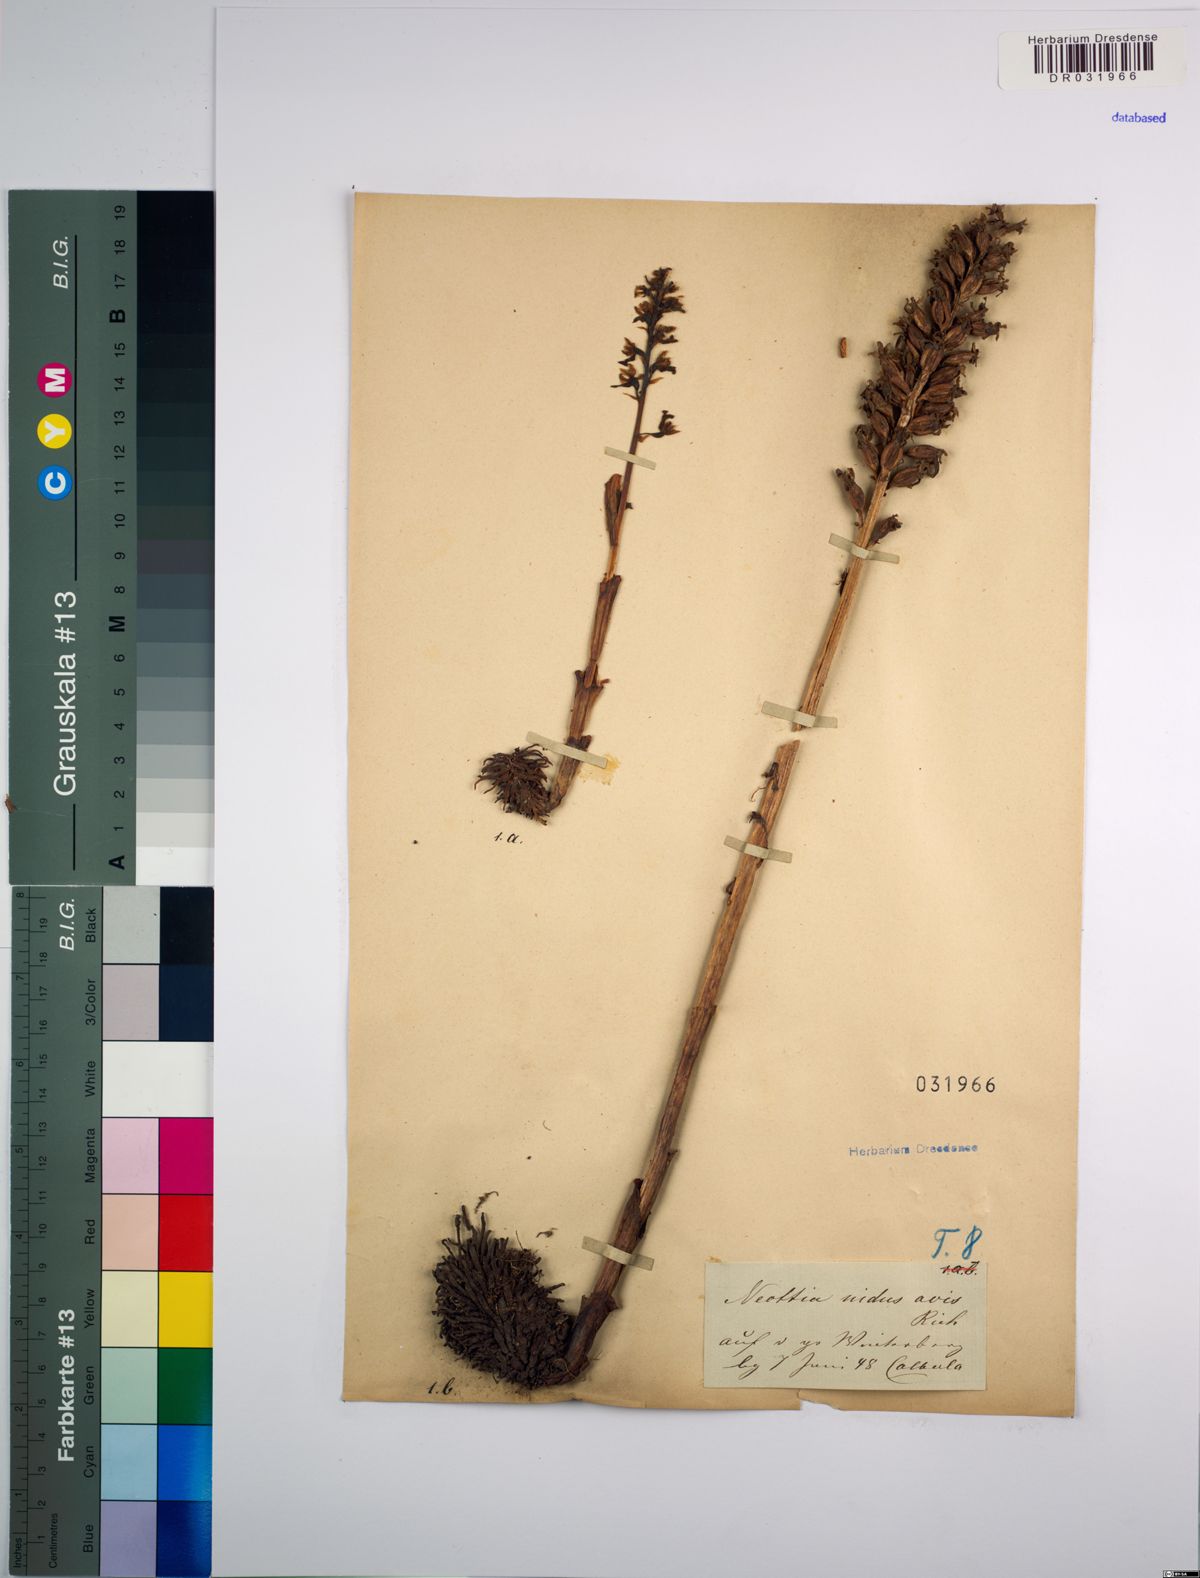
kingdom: Plantae
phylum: Tracheophyta
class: Liliopsida
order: Asparagales
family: Orchidaceae
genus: Neottia
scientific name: Neottia nidus-avis
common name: Bird's-nest orchid
